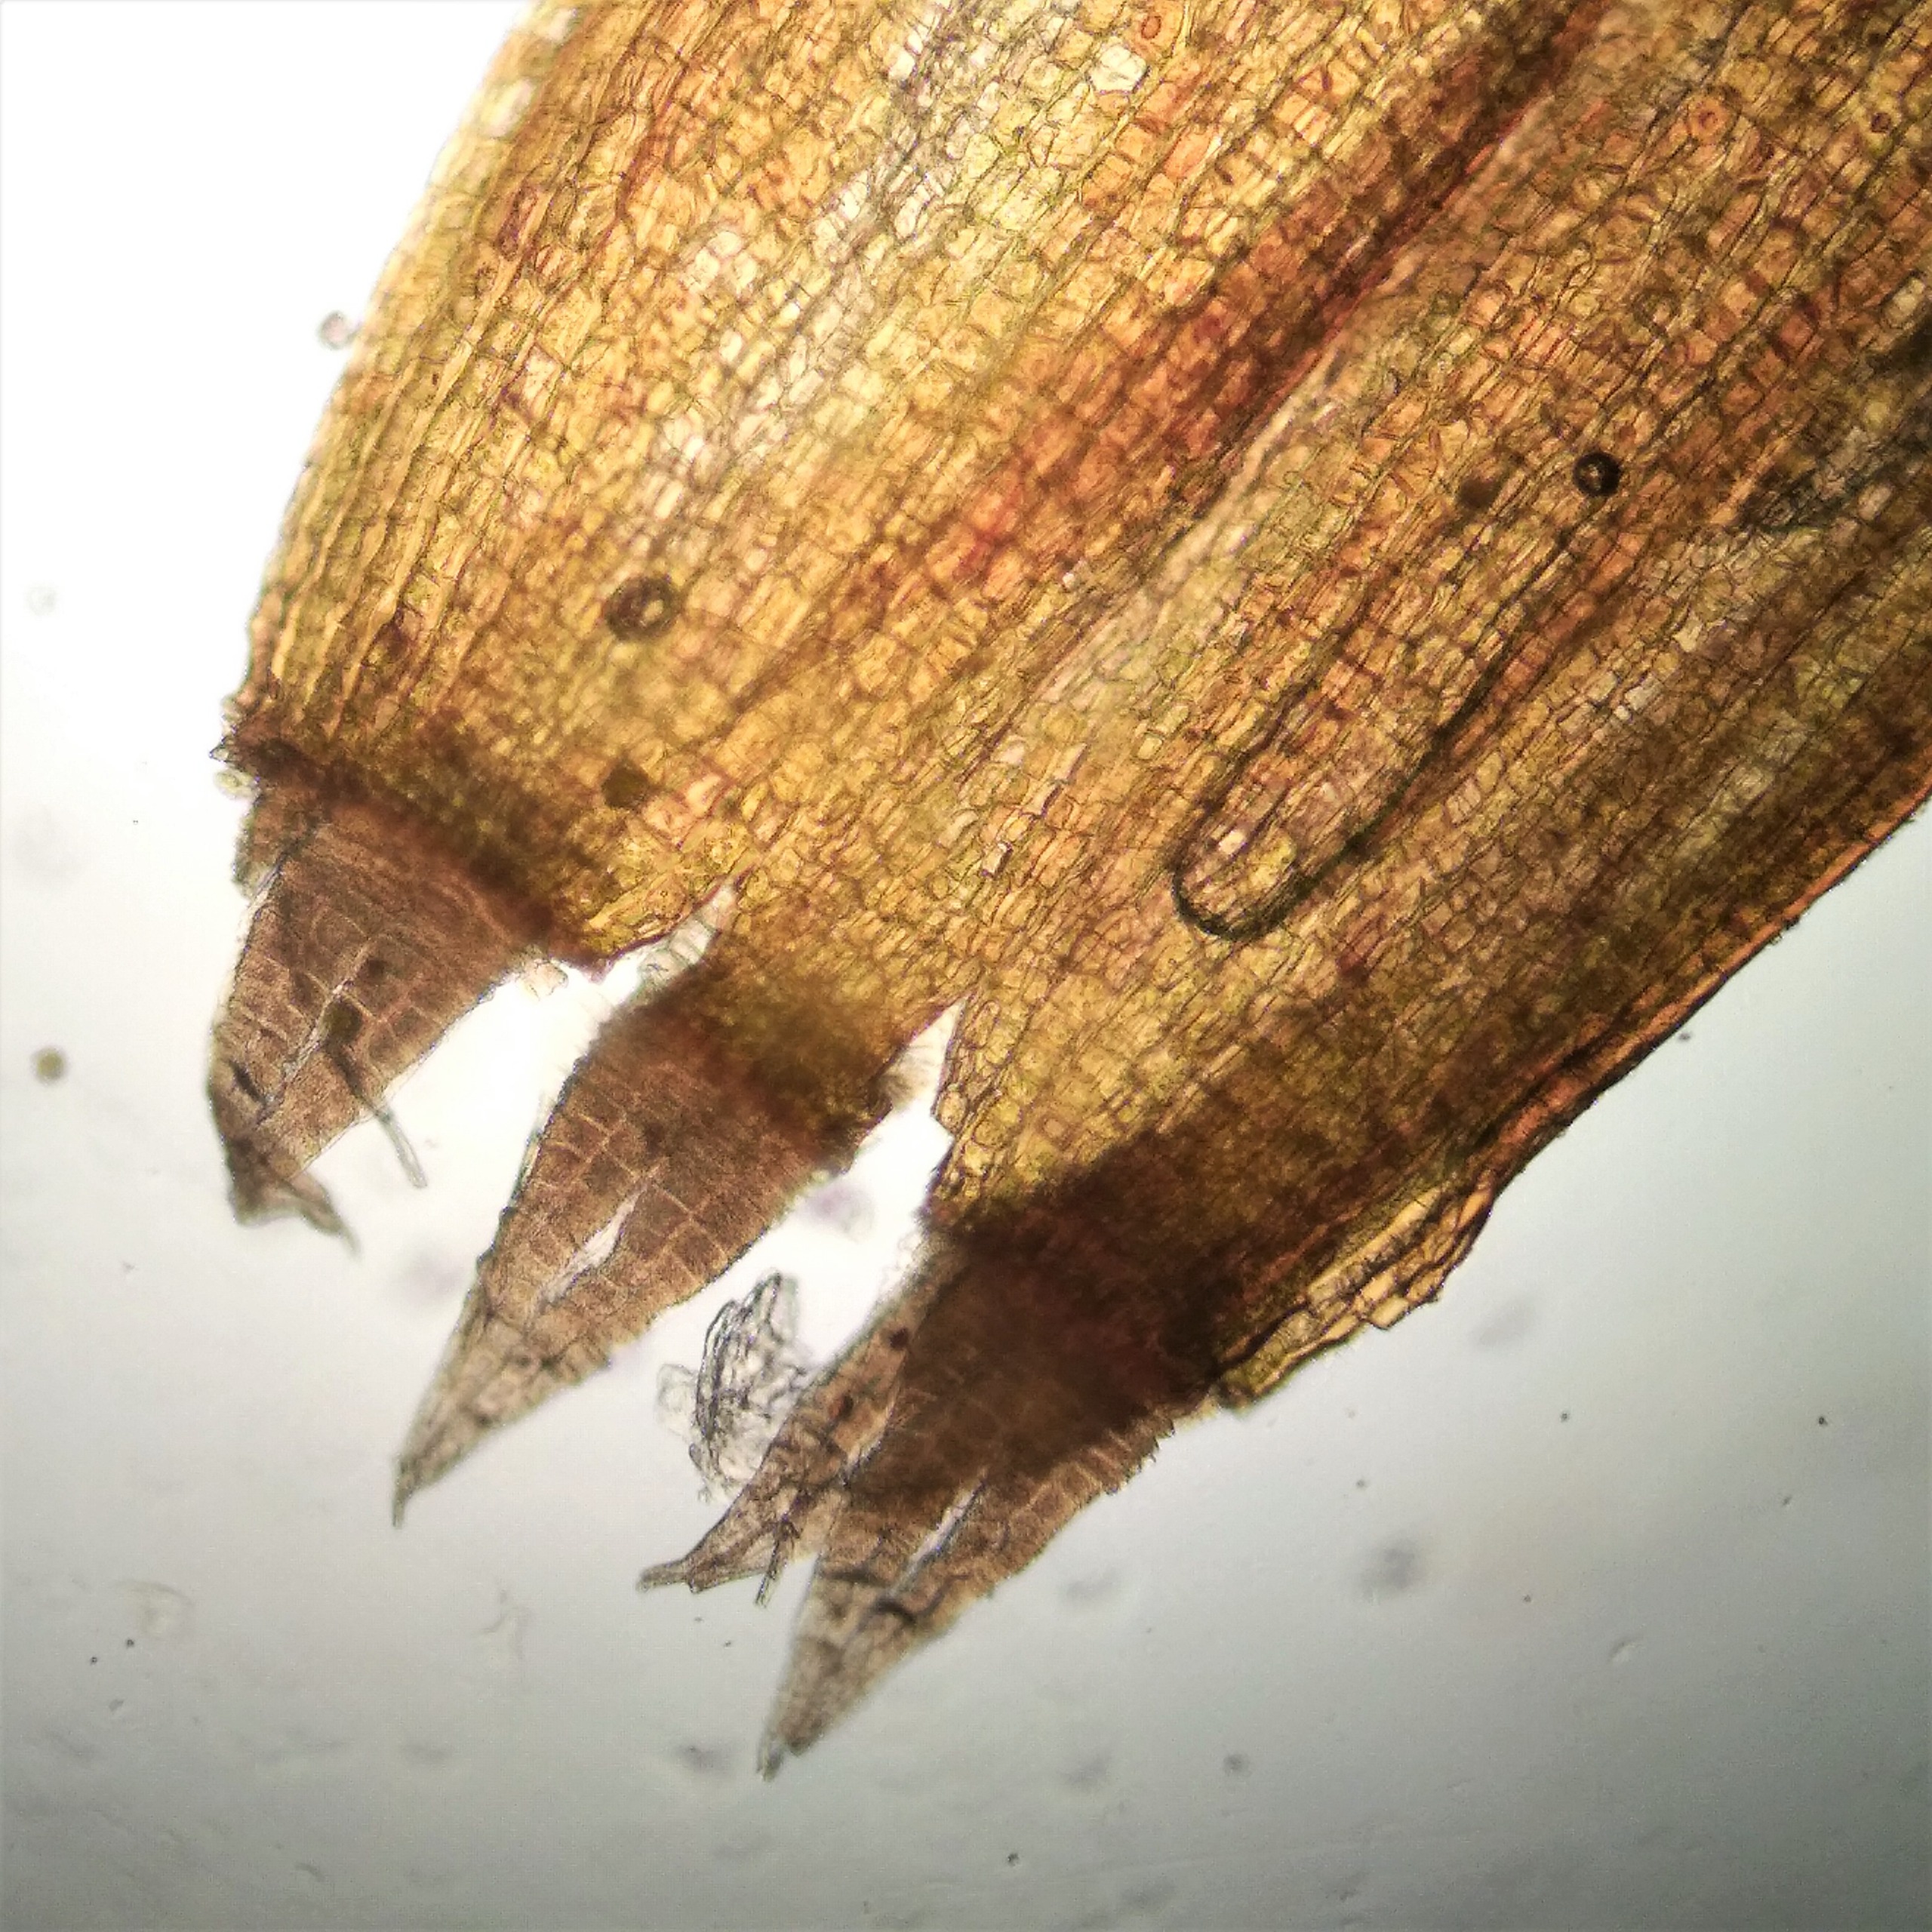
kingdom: Plantae
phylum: Bryophyta
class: Bryopsida
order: Orthotrichales
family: Orthotrichaceae
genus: Ulota
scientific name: Ulota crispa
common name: Kruset låddenhætte
